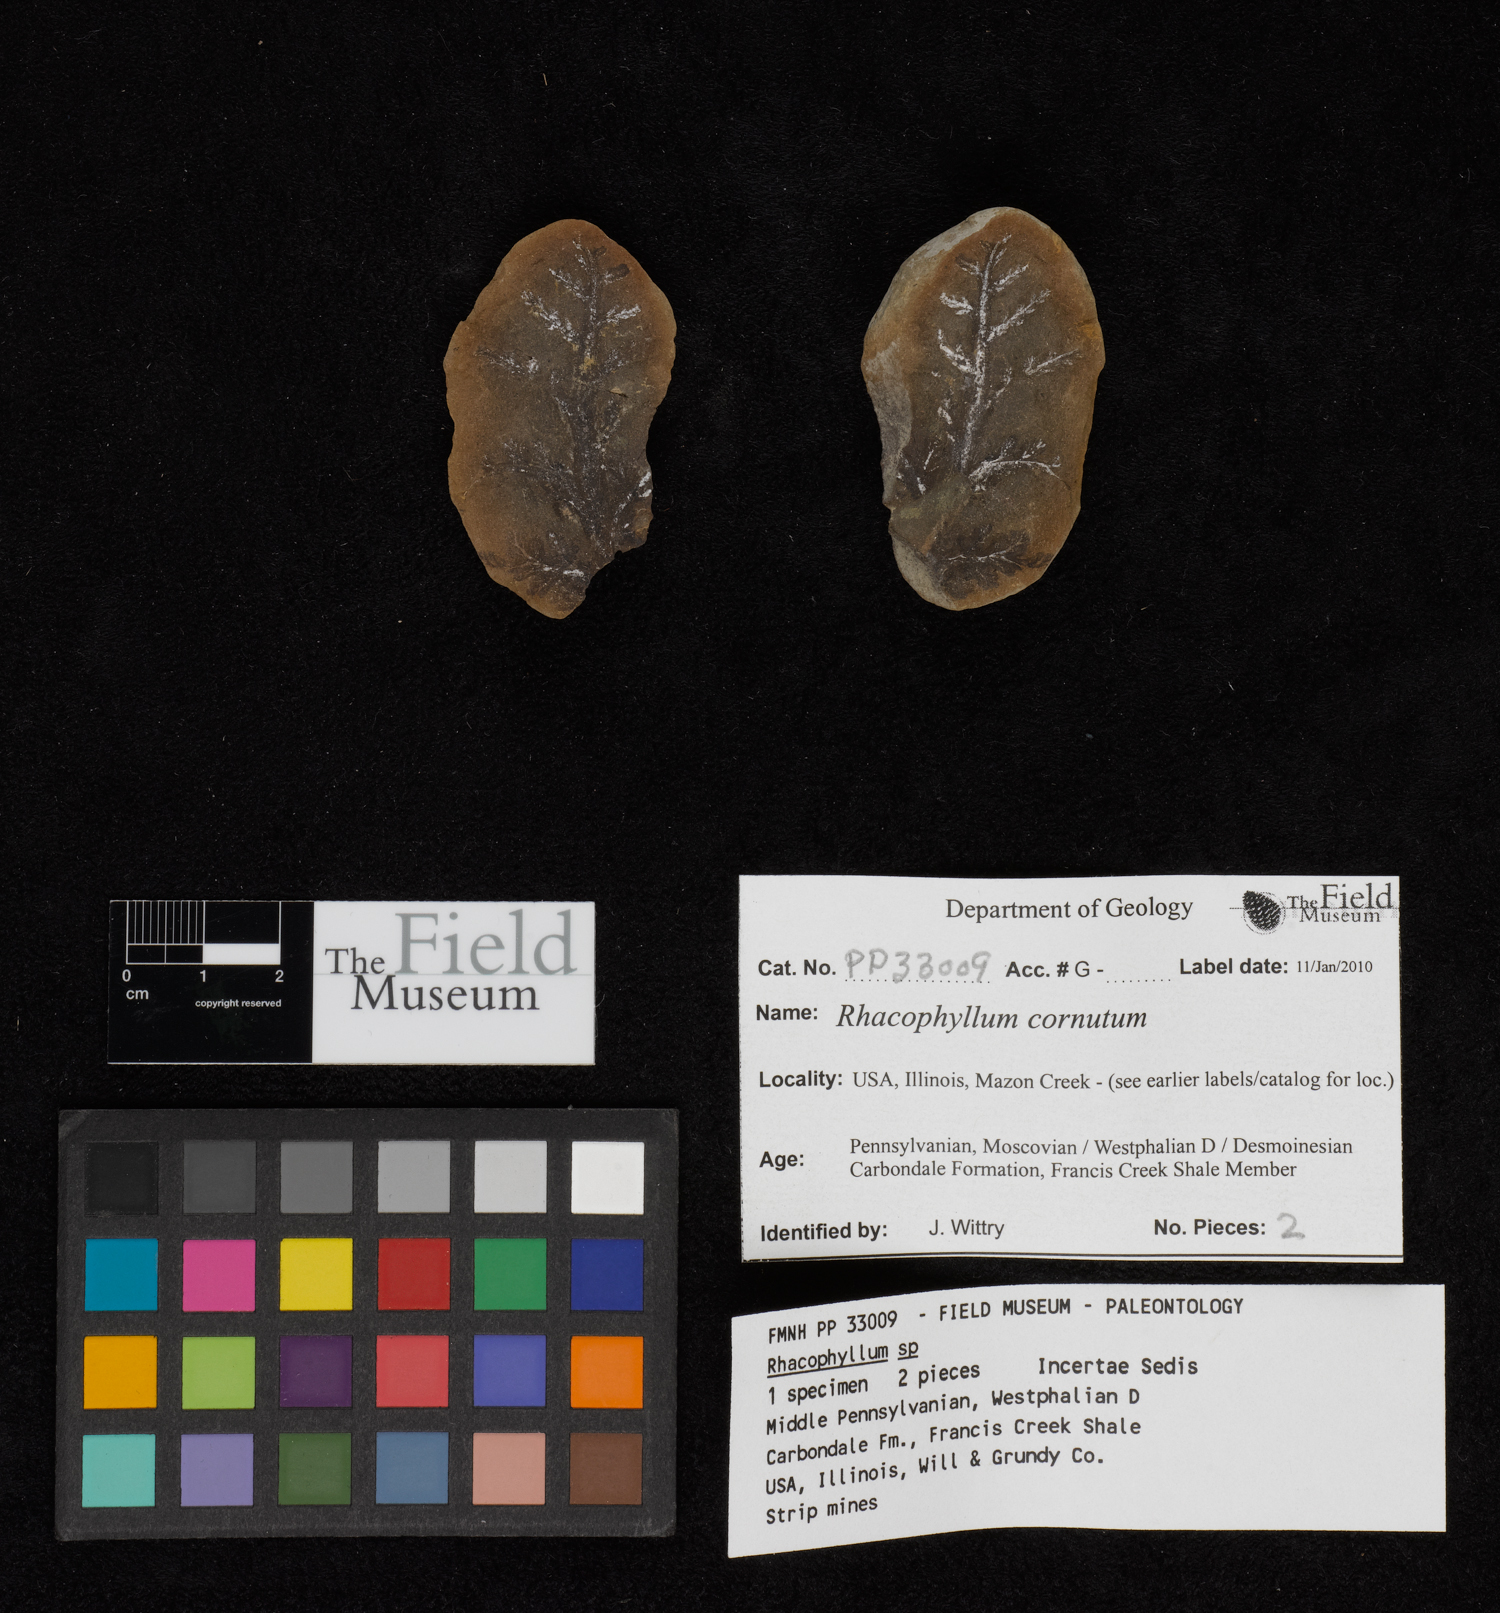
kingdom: Plantae
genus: Rhacophyllum
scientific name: Rhacophyllum
